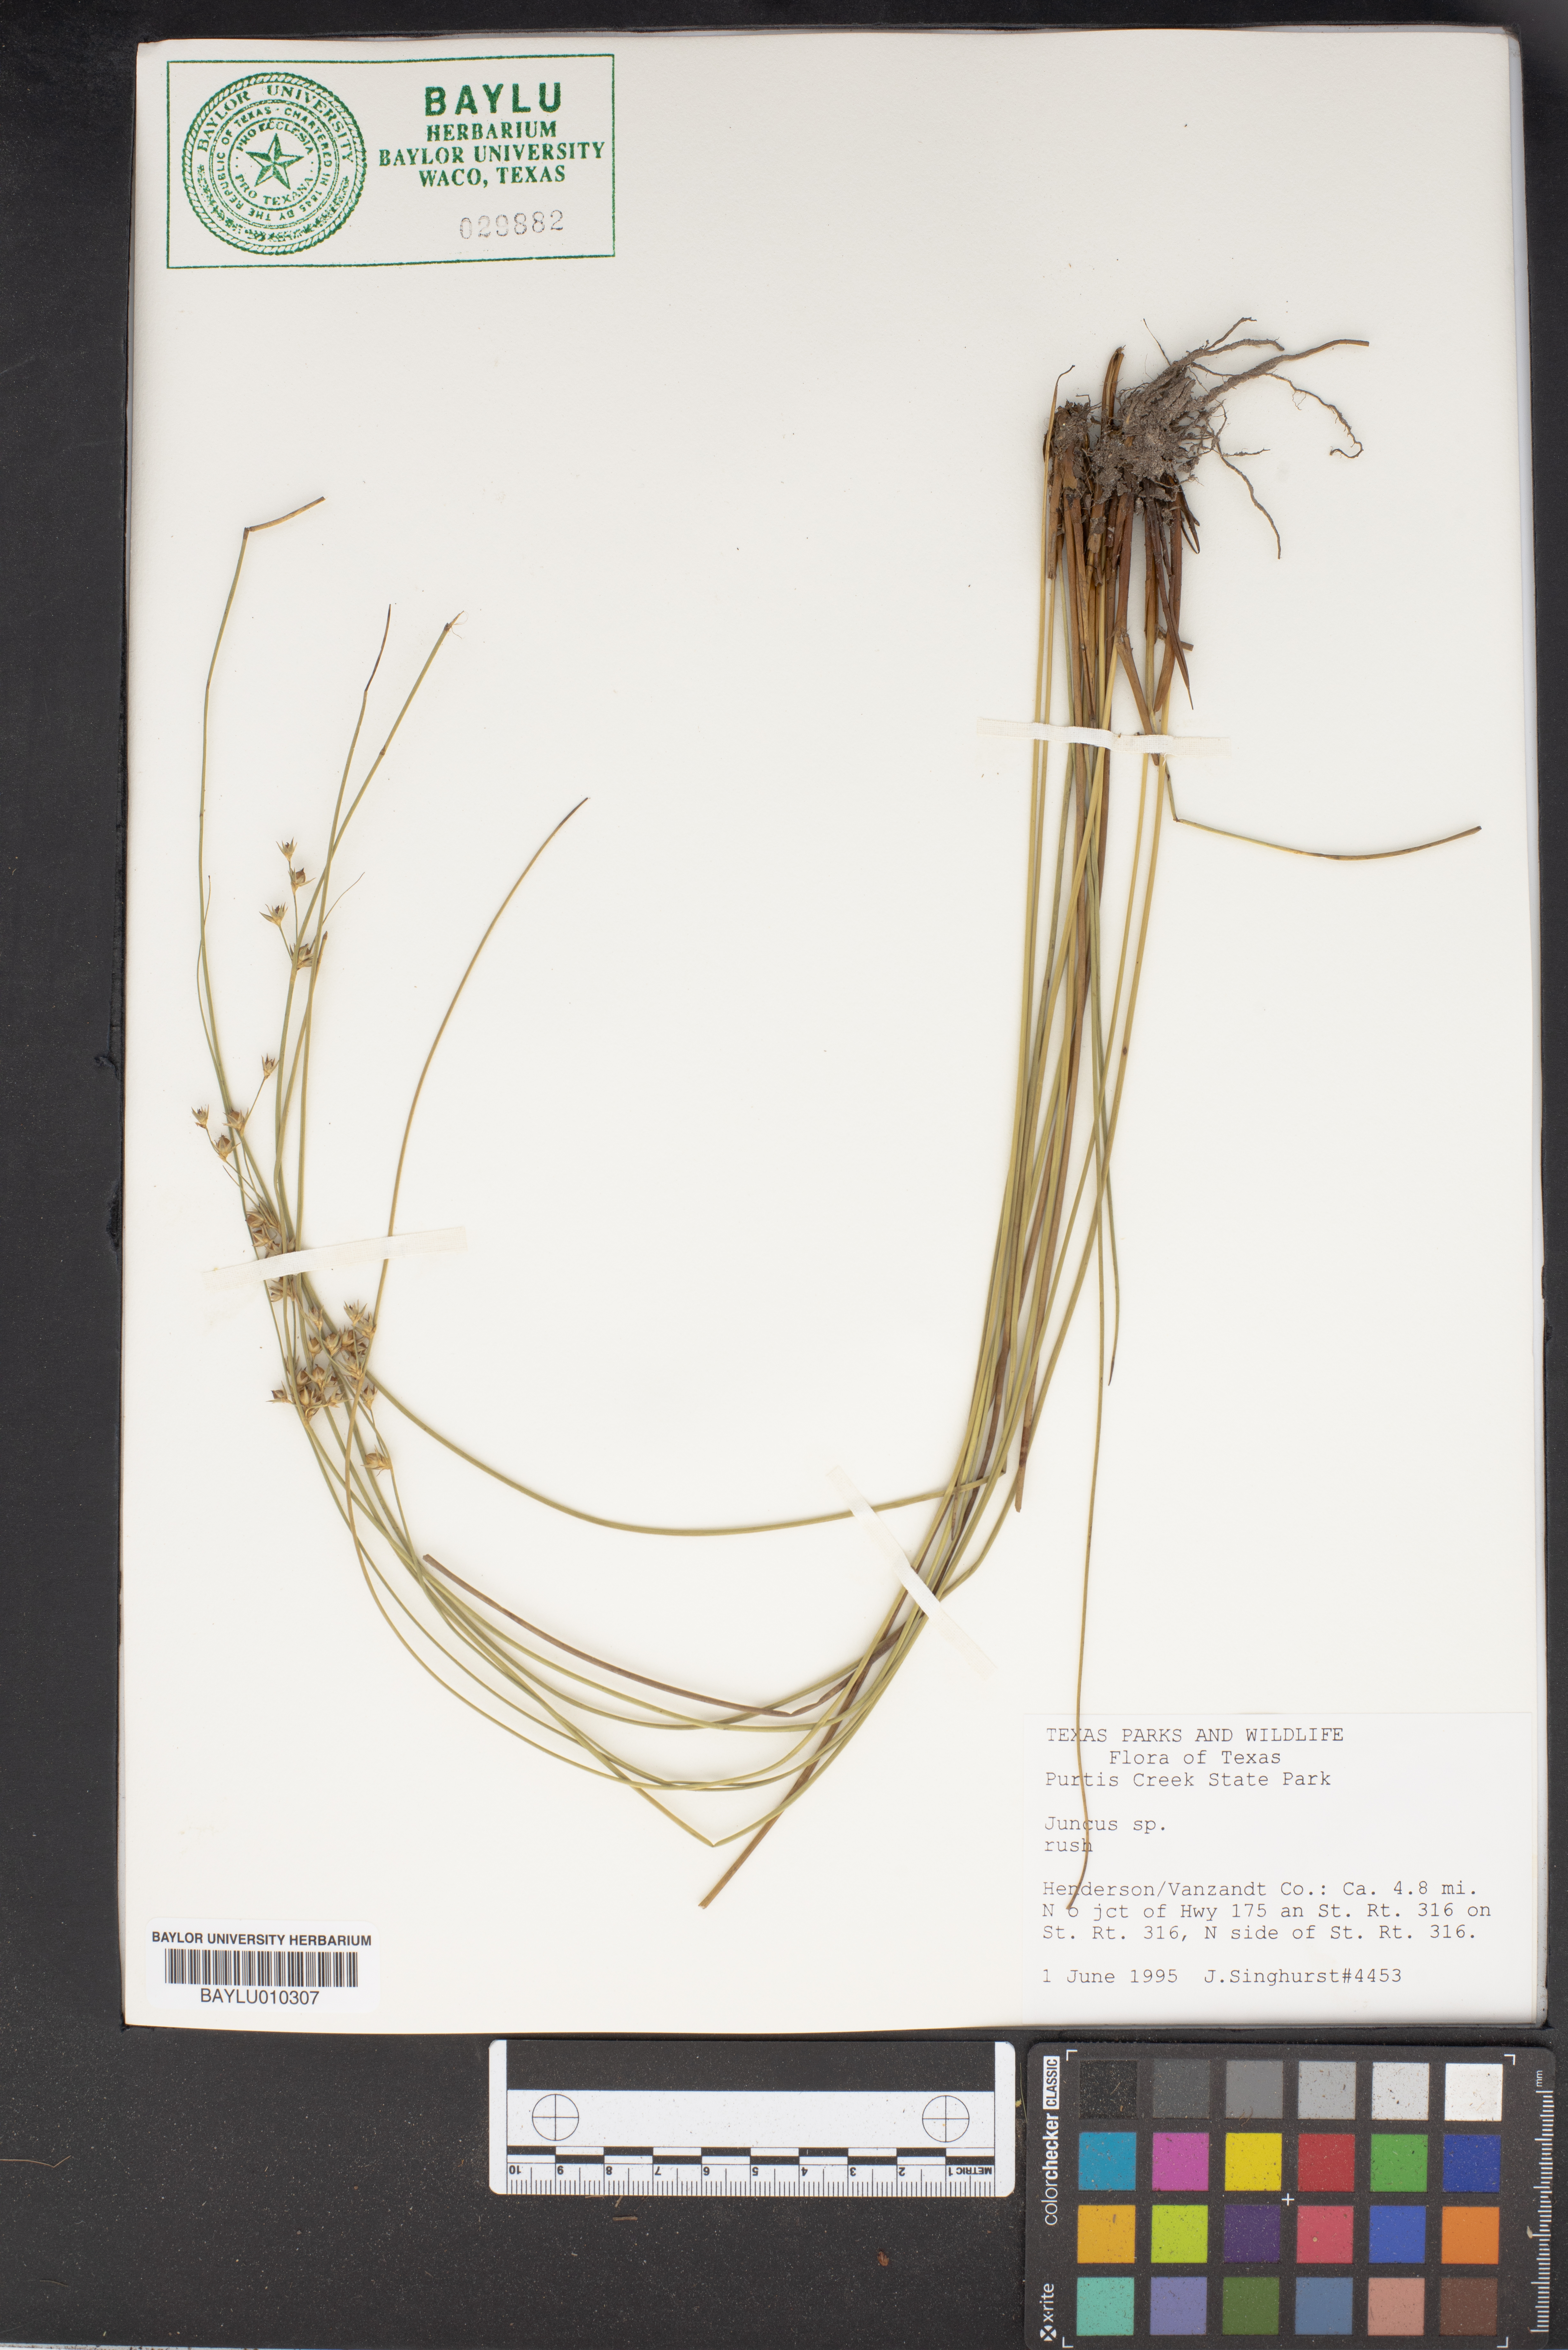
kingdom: Plantae
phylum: Tracheophyta
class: Liliopsida
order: Poales
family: Juncaceae
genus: Juncus
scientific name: Juncus sphaerocarpus
